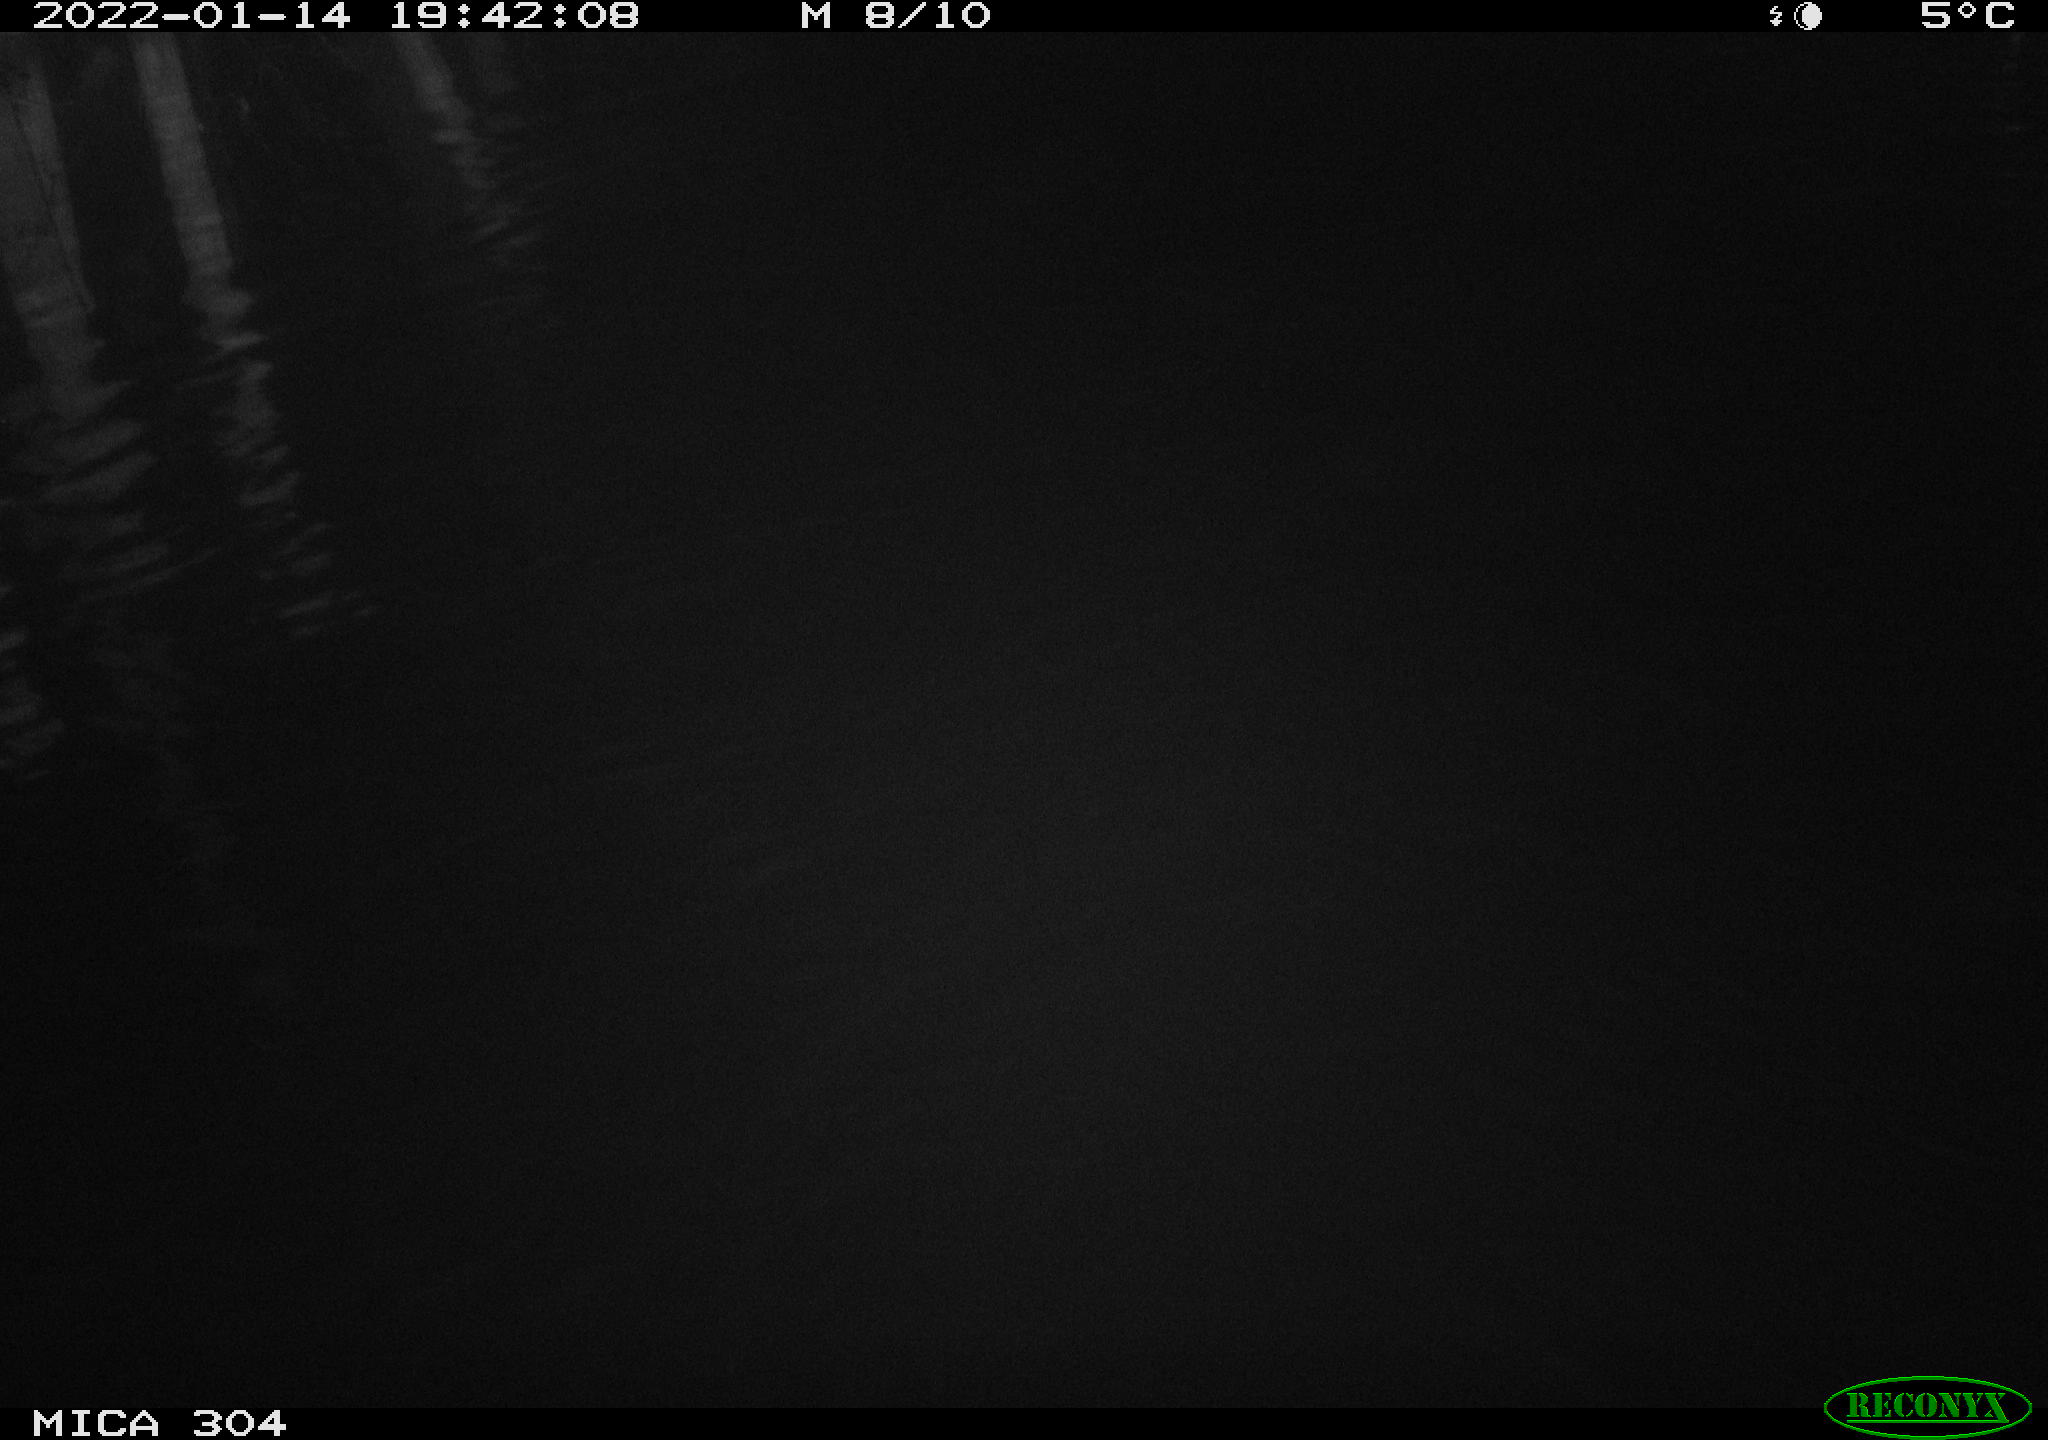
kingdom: Animalia
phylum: Chordata
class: Mammalia
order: Rodentia
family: Cricetidae
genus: Ondatra
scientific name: Ondatra zibethicus
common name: Muskrat
